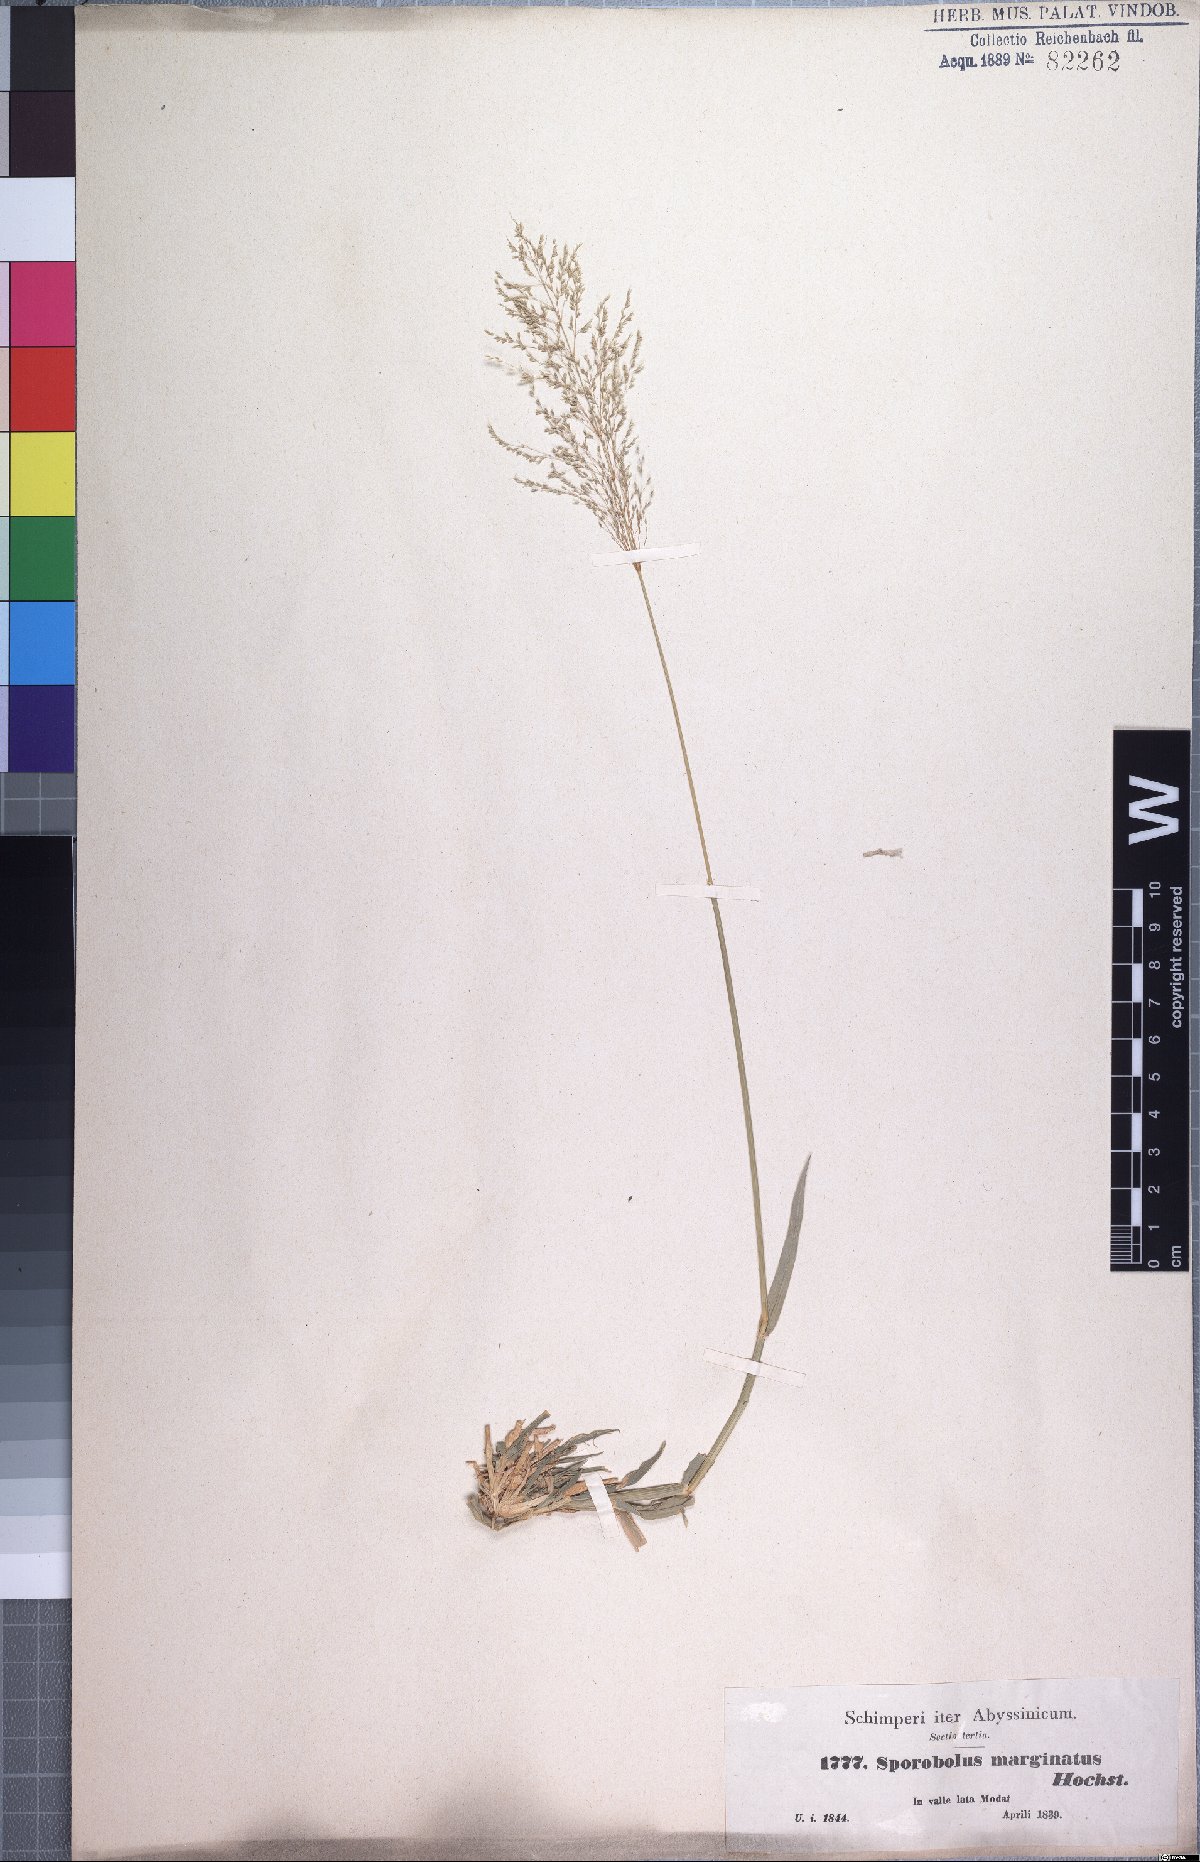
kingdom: Plantae
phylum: Tracheophyta
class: Liliopsida
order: Poales
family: Poaceae
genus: Sporobolus
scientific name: Sporobolus ioclados
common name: Pan dropseed
